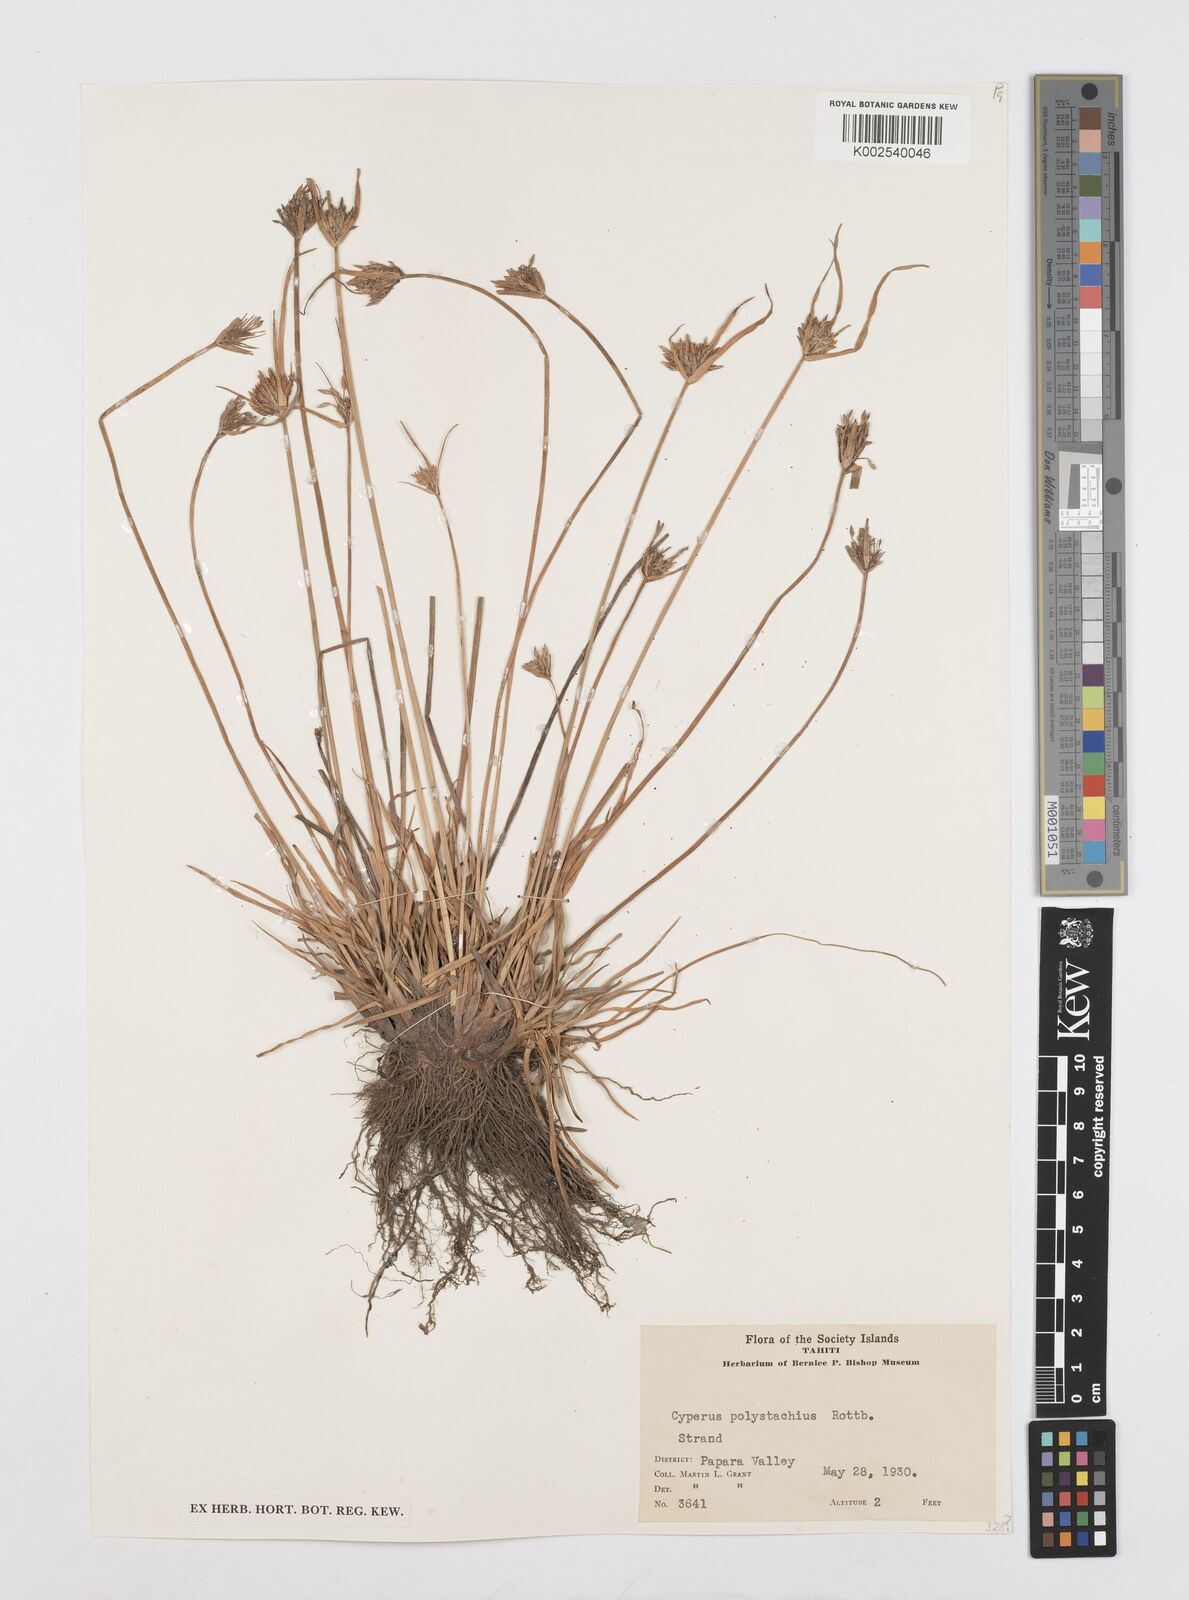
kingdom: Plantae
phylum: Tracheophyta
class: Liliopsida
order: Poales
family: Cyperaceae
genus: Cyperus
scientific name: Cyperus polystachyos
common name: Bunchy flat sedge
